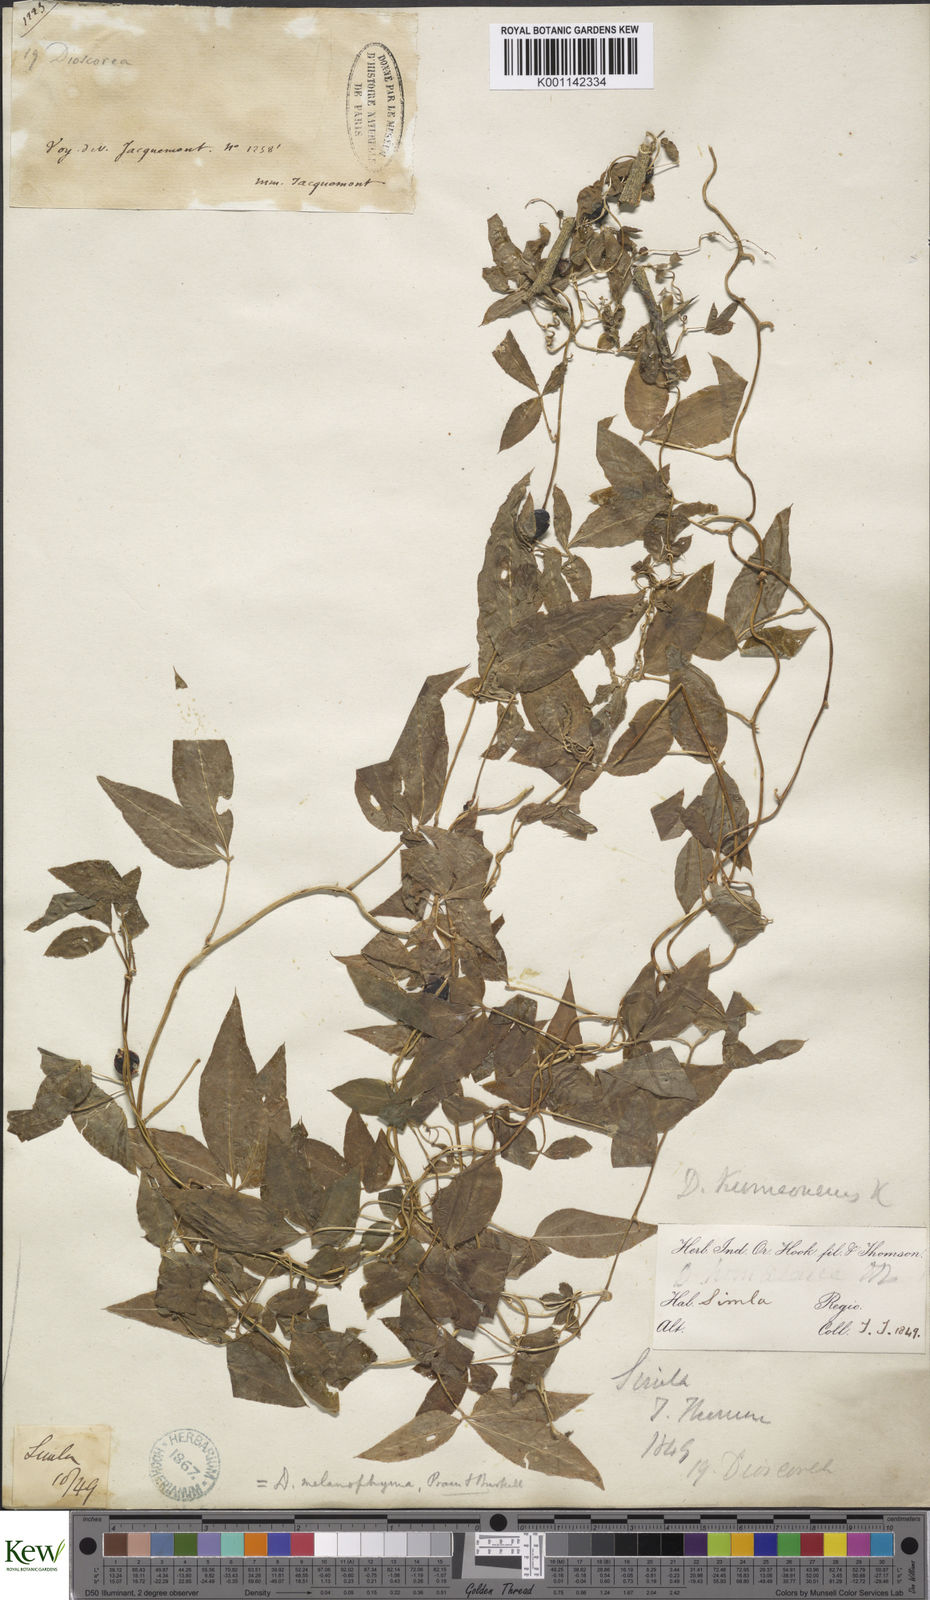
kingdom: Plantae
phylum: Tracheophyta
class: Liliopsida
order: Dioscoreales
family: Dioscoreaceae
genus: Dioscorea
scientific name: Dioscorea melanophyma
